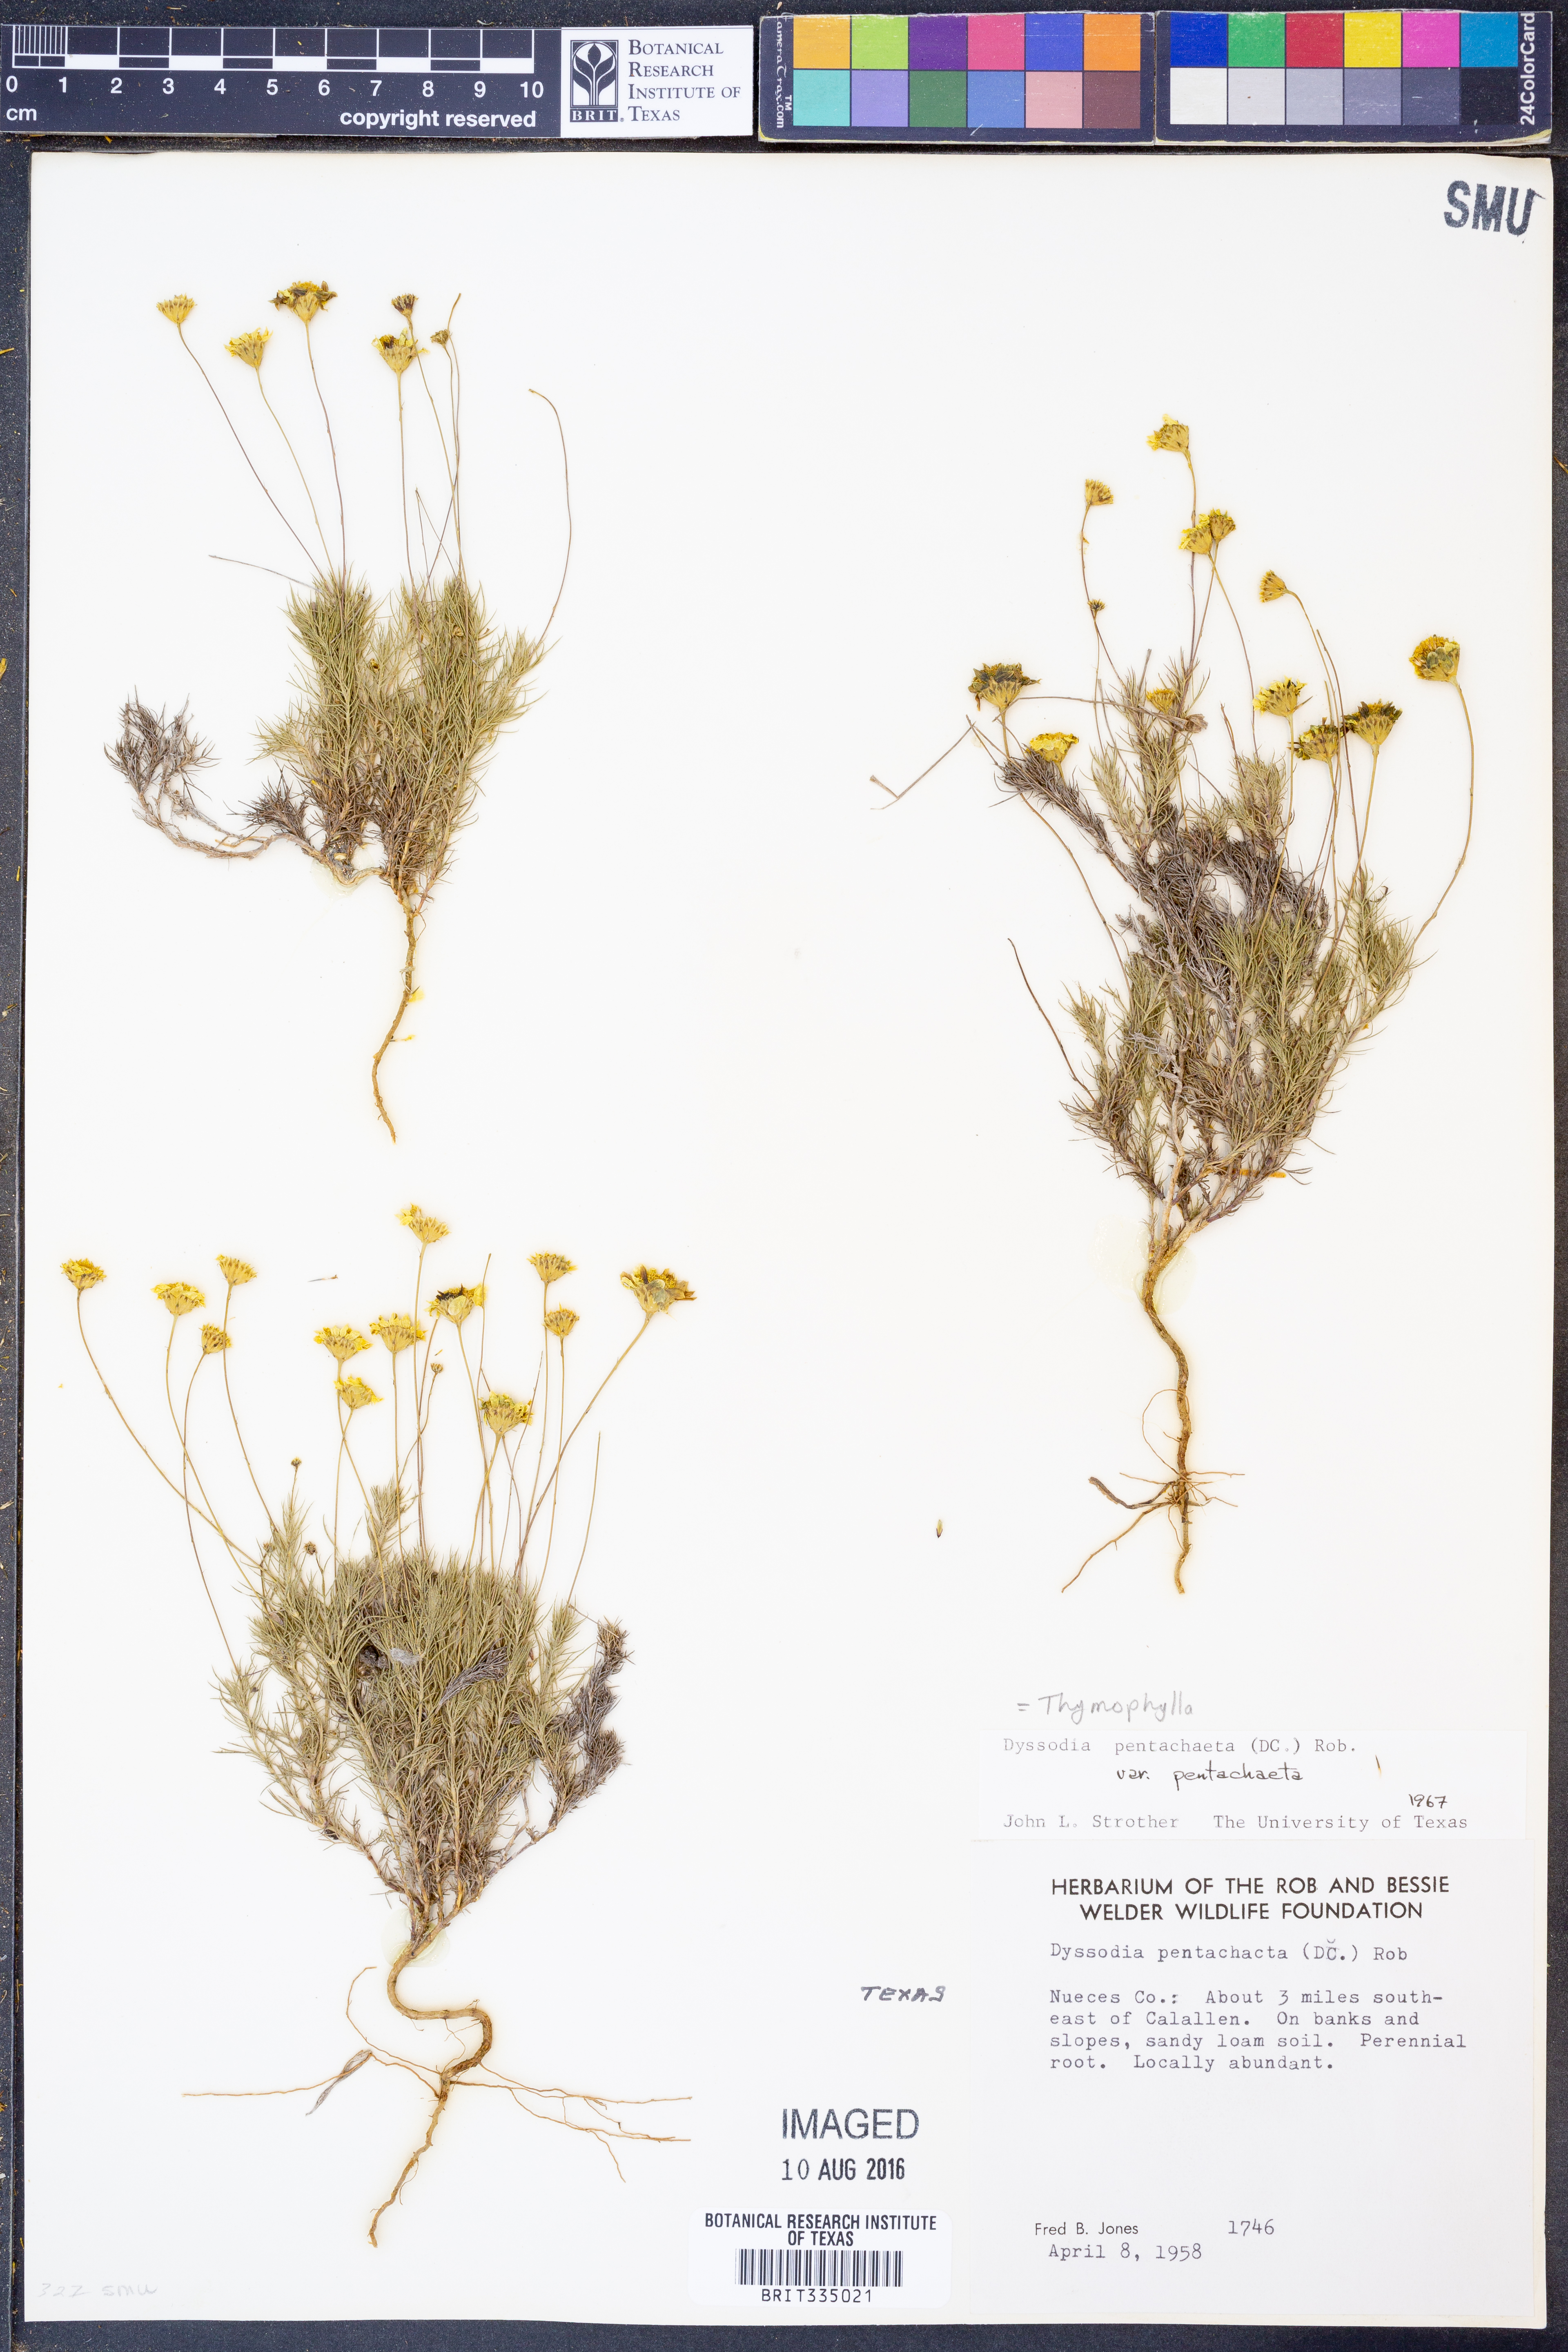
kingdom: Plantae
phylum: Tracheophyta
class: Magnoliopsida
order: Asterales
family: Asteraceae
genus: Thymophylla
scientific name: Thymophylla pentachaeta
